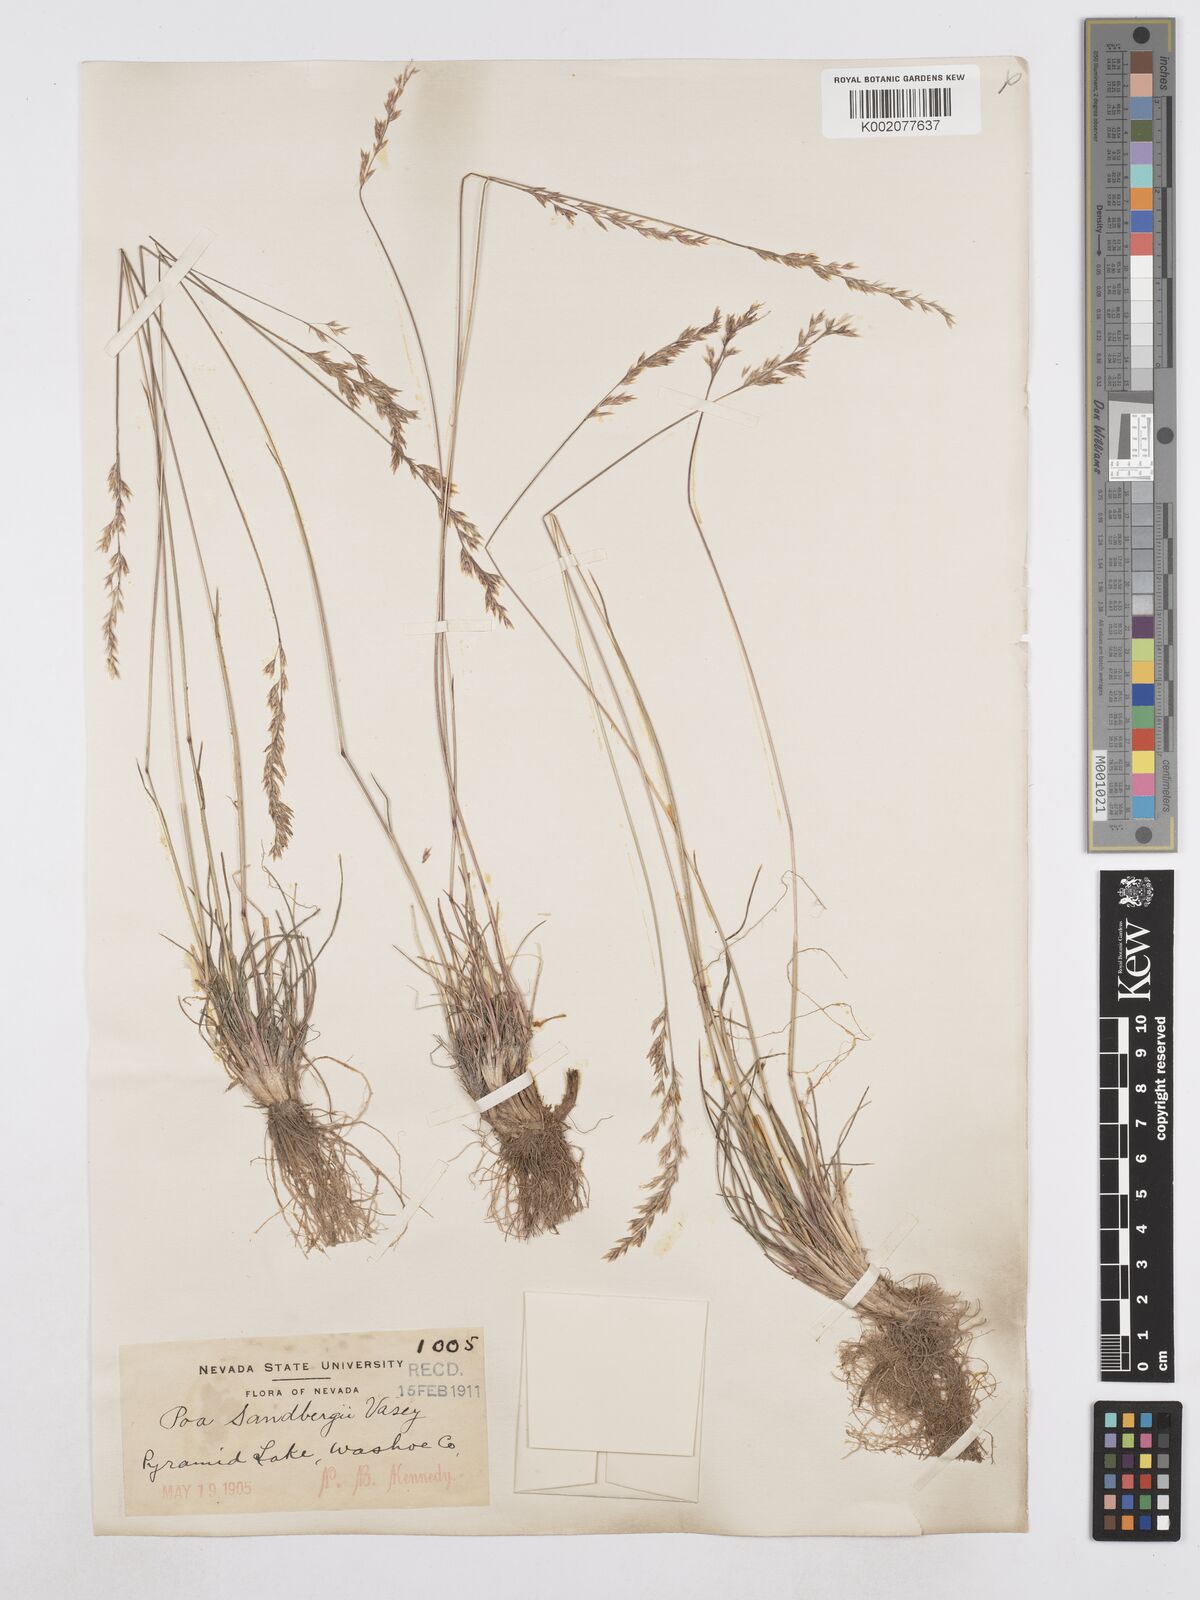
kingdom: Plantae
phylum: Tracheophyta
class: Liliopsida
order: Poales
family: Poaceae
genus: Poa
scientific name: Poa secunda
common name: Sandberg bluegrass
